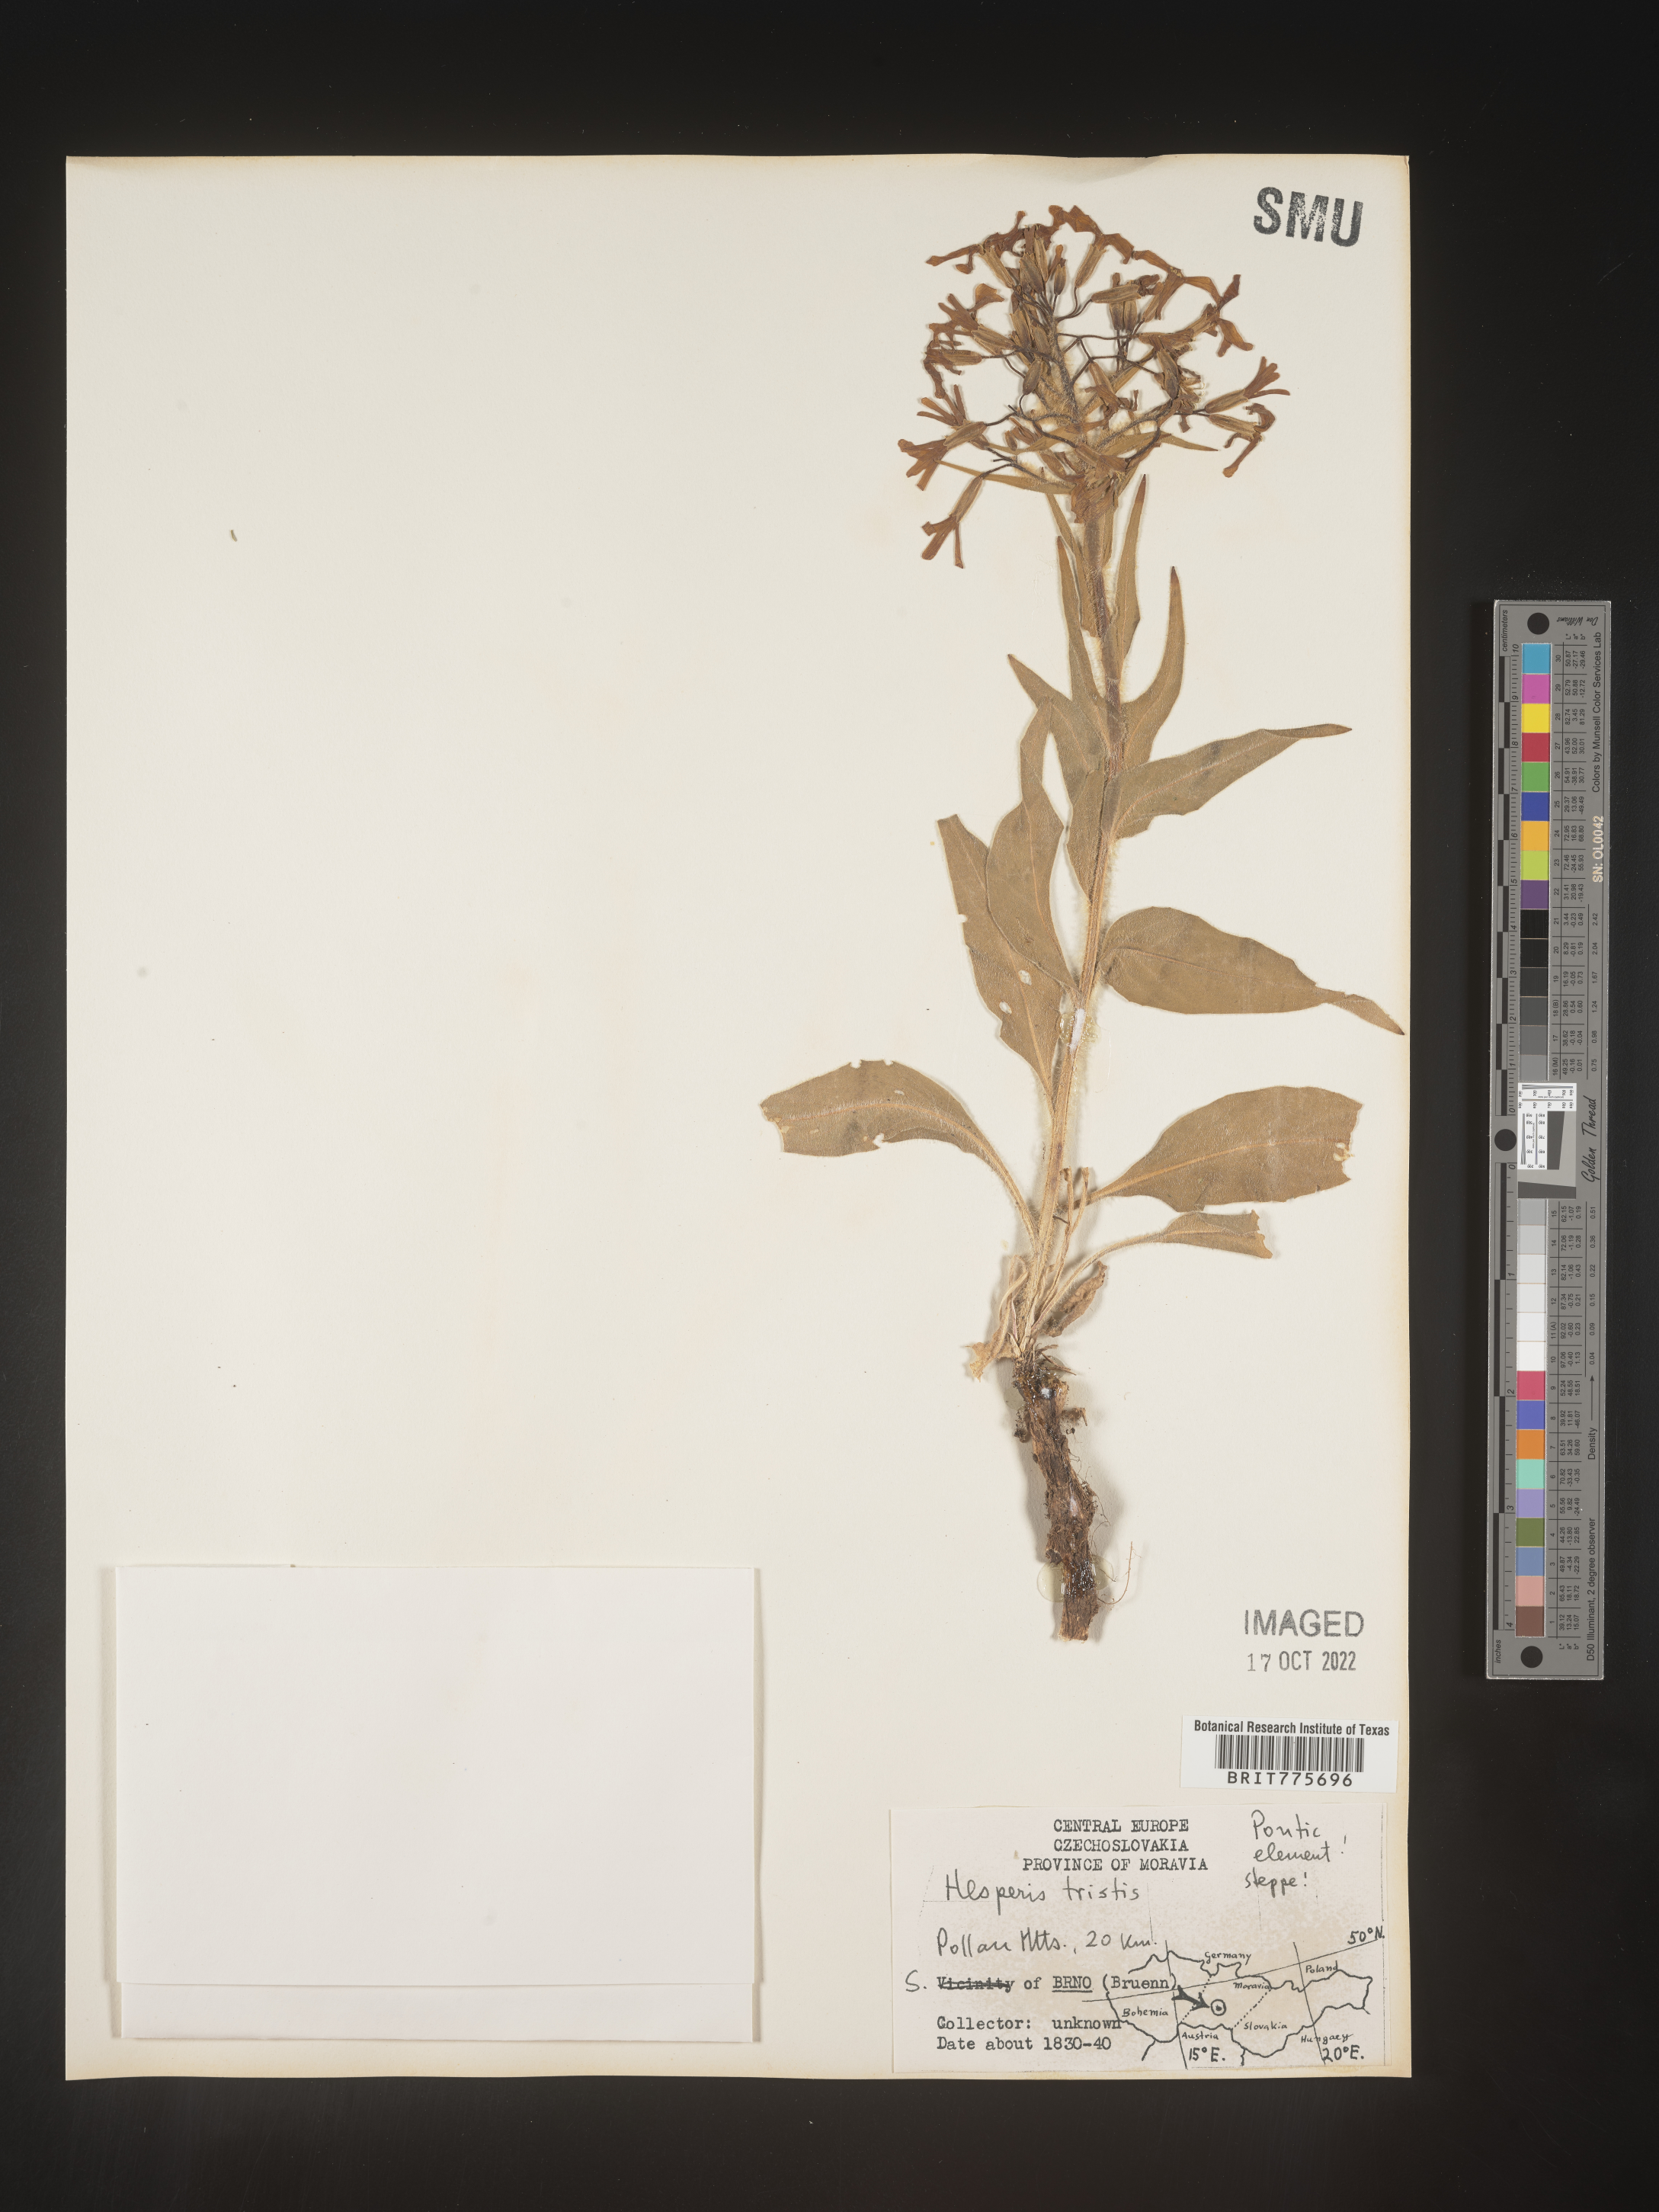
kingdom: Plantae
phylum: Tracheophyta
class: Magnoliopsida
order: Brassicales
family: Brassicaceae
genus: Hesperis
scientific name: Hesperis
